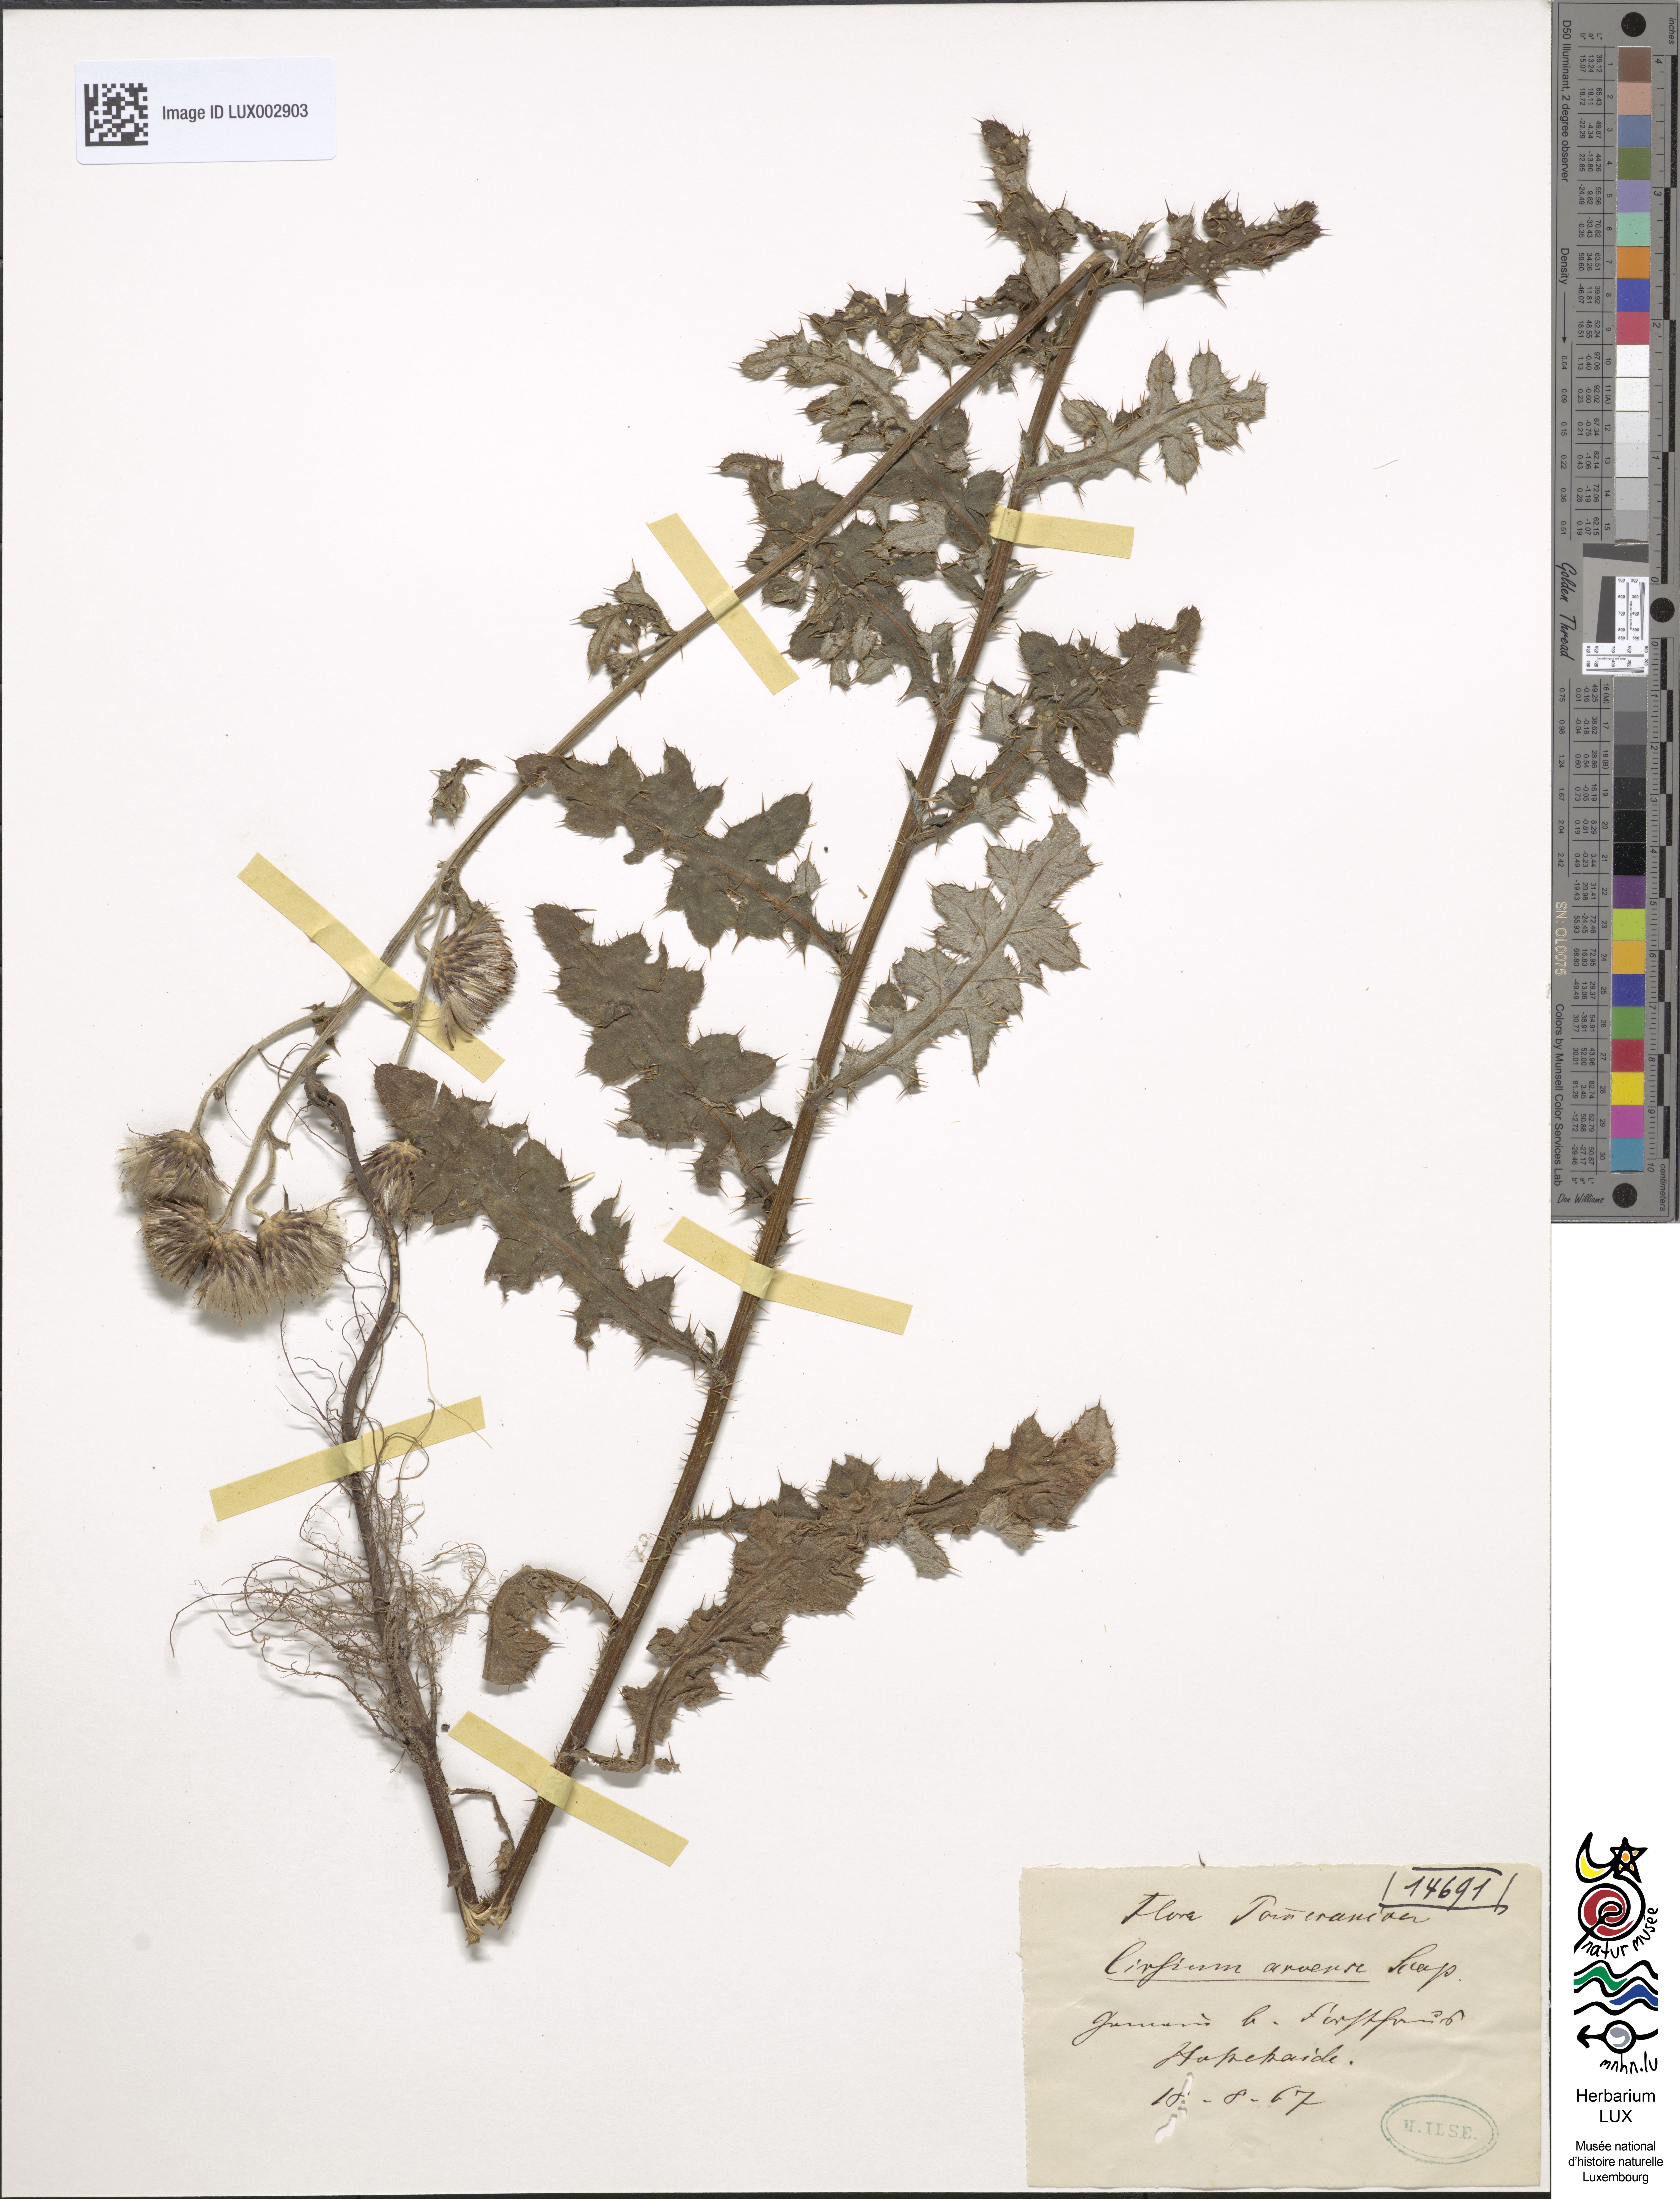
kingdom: Plantae
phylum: Tracheophyta
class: Magnoliopsida
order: Asterales
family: Asteraceae
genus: Cirsium
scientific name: Cirsium arvense
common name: Creeping thistle
